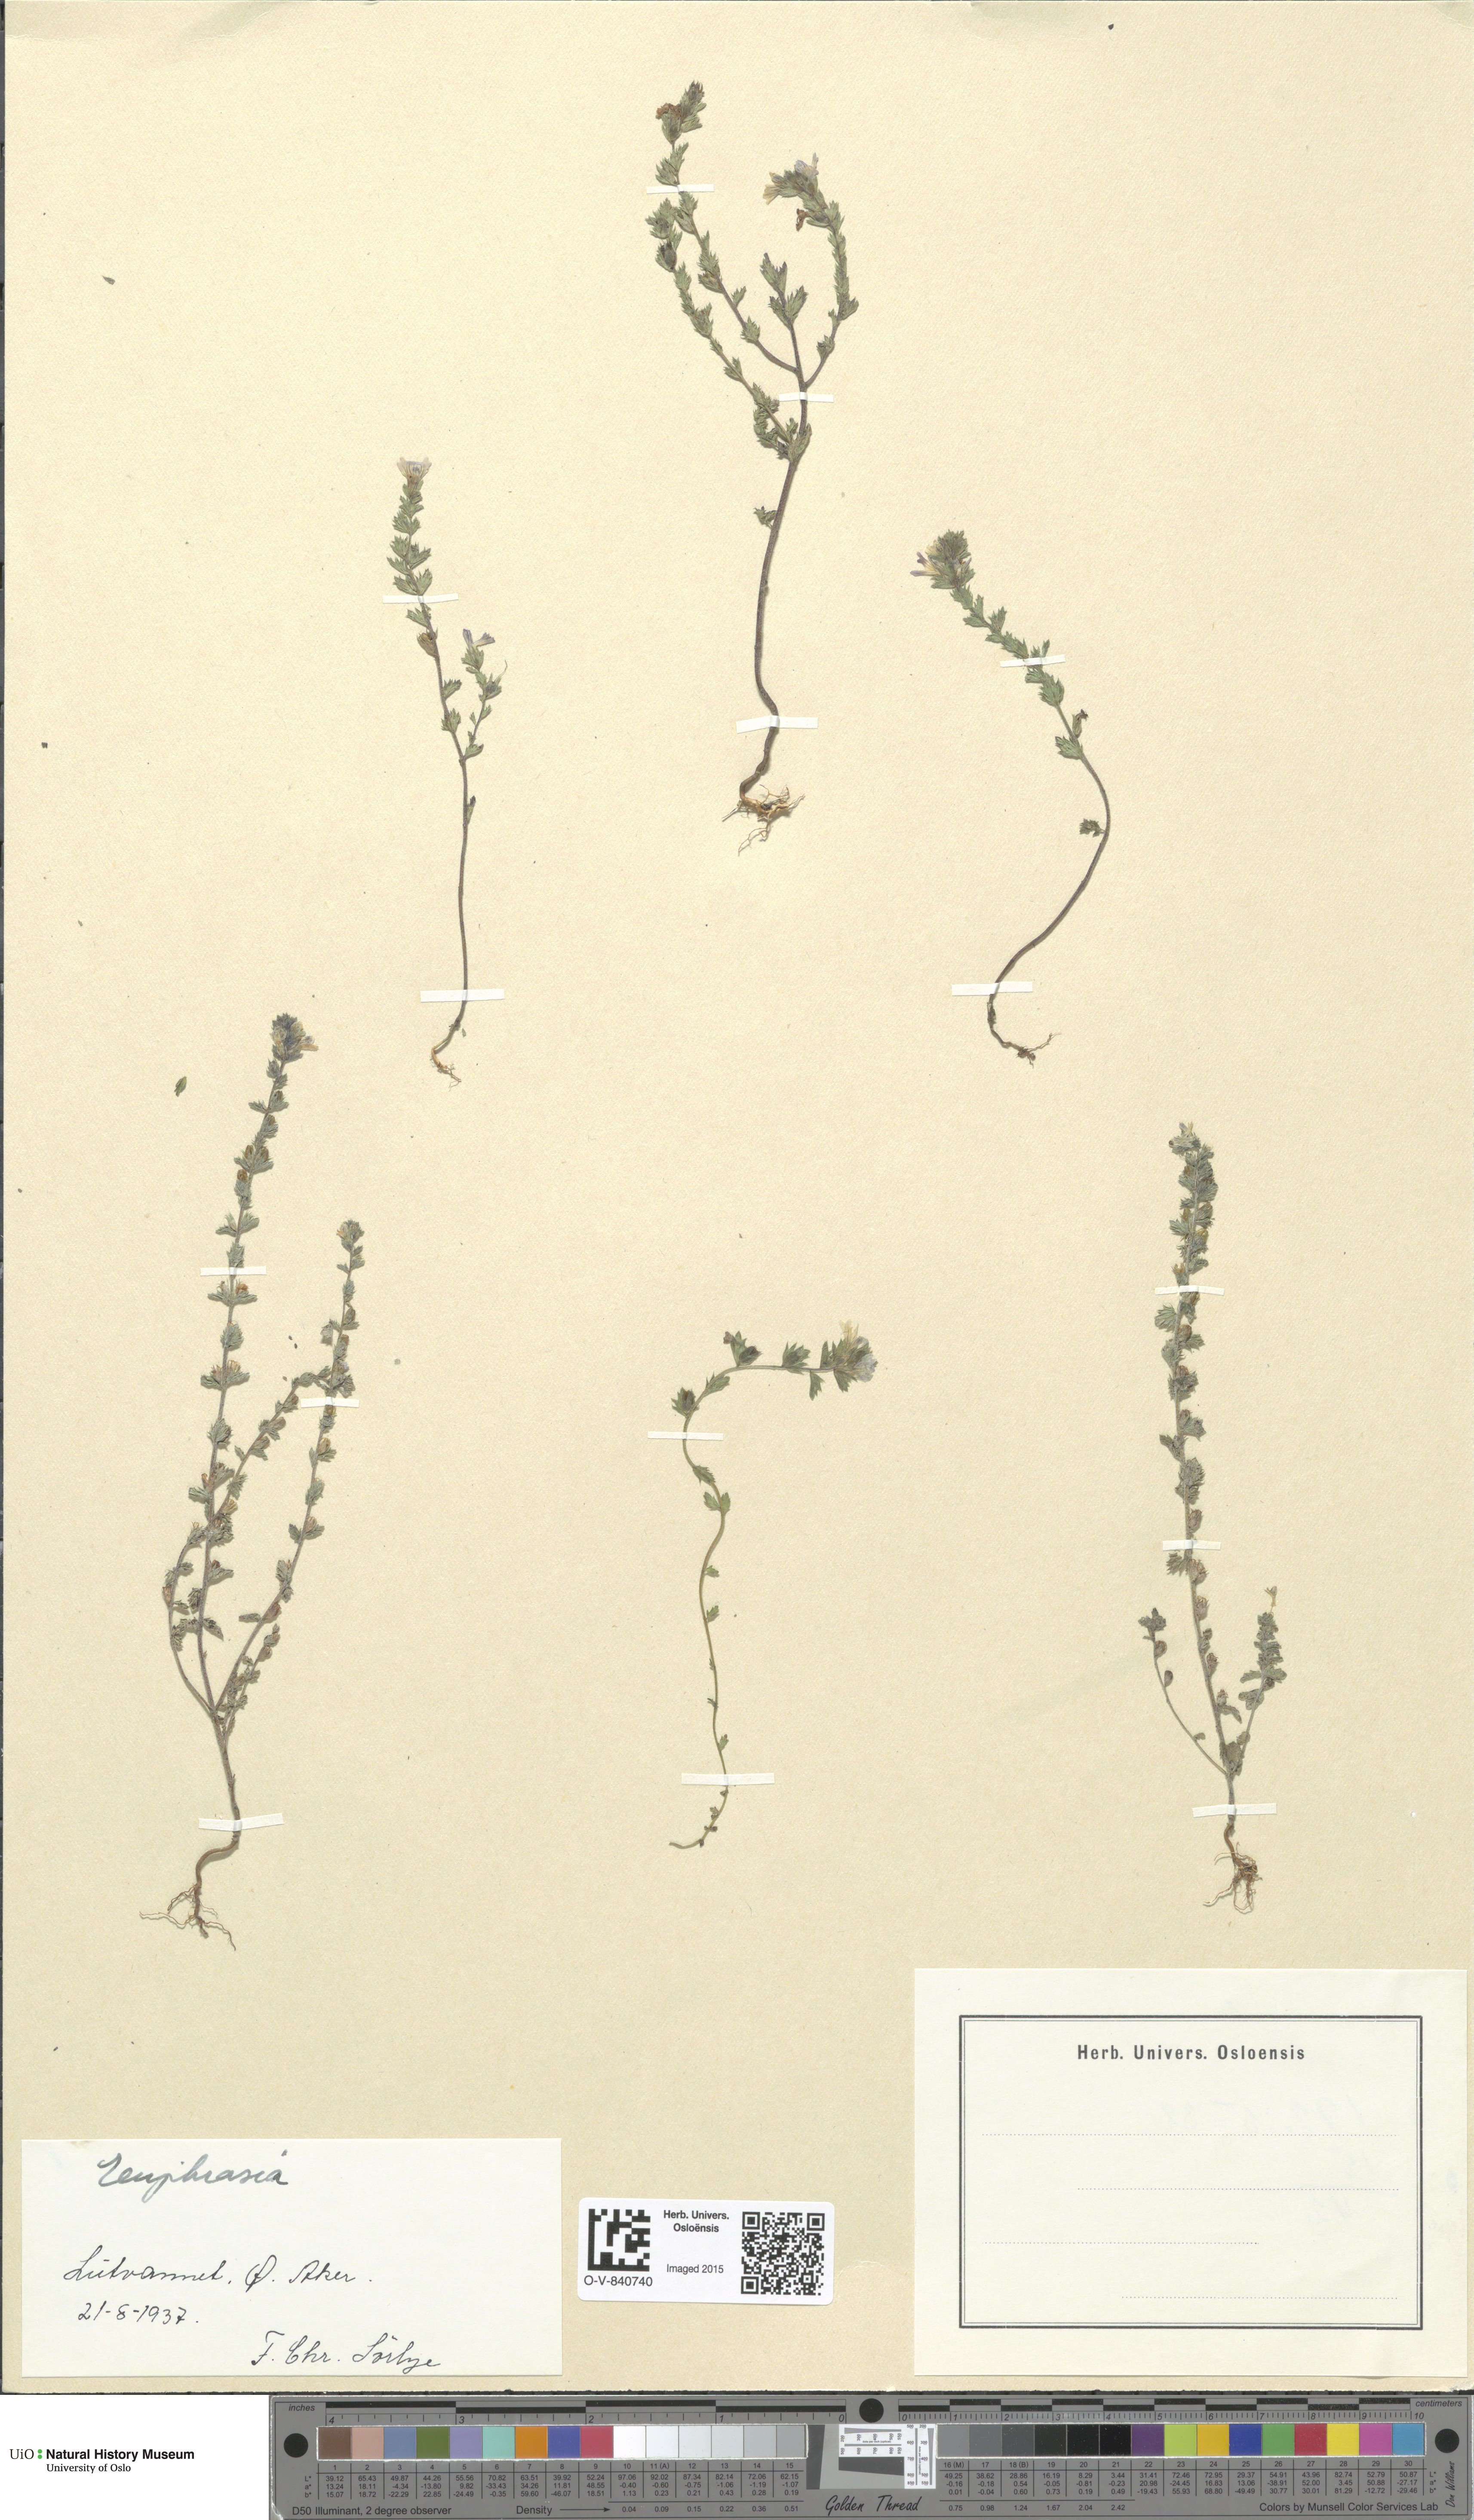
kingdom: Plantae
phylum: Tracheophyta
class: Magnoliopsida
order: Lamiales
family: Orobanchaceae
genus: Euphrasia
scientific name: Euphrasia
